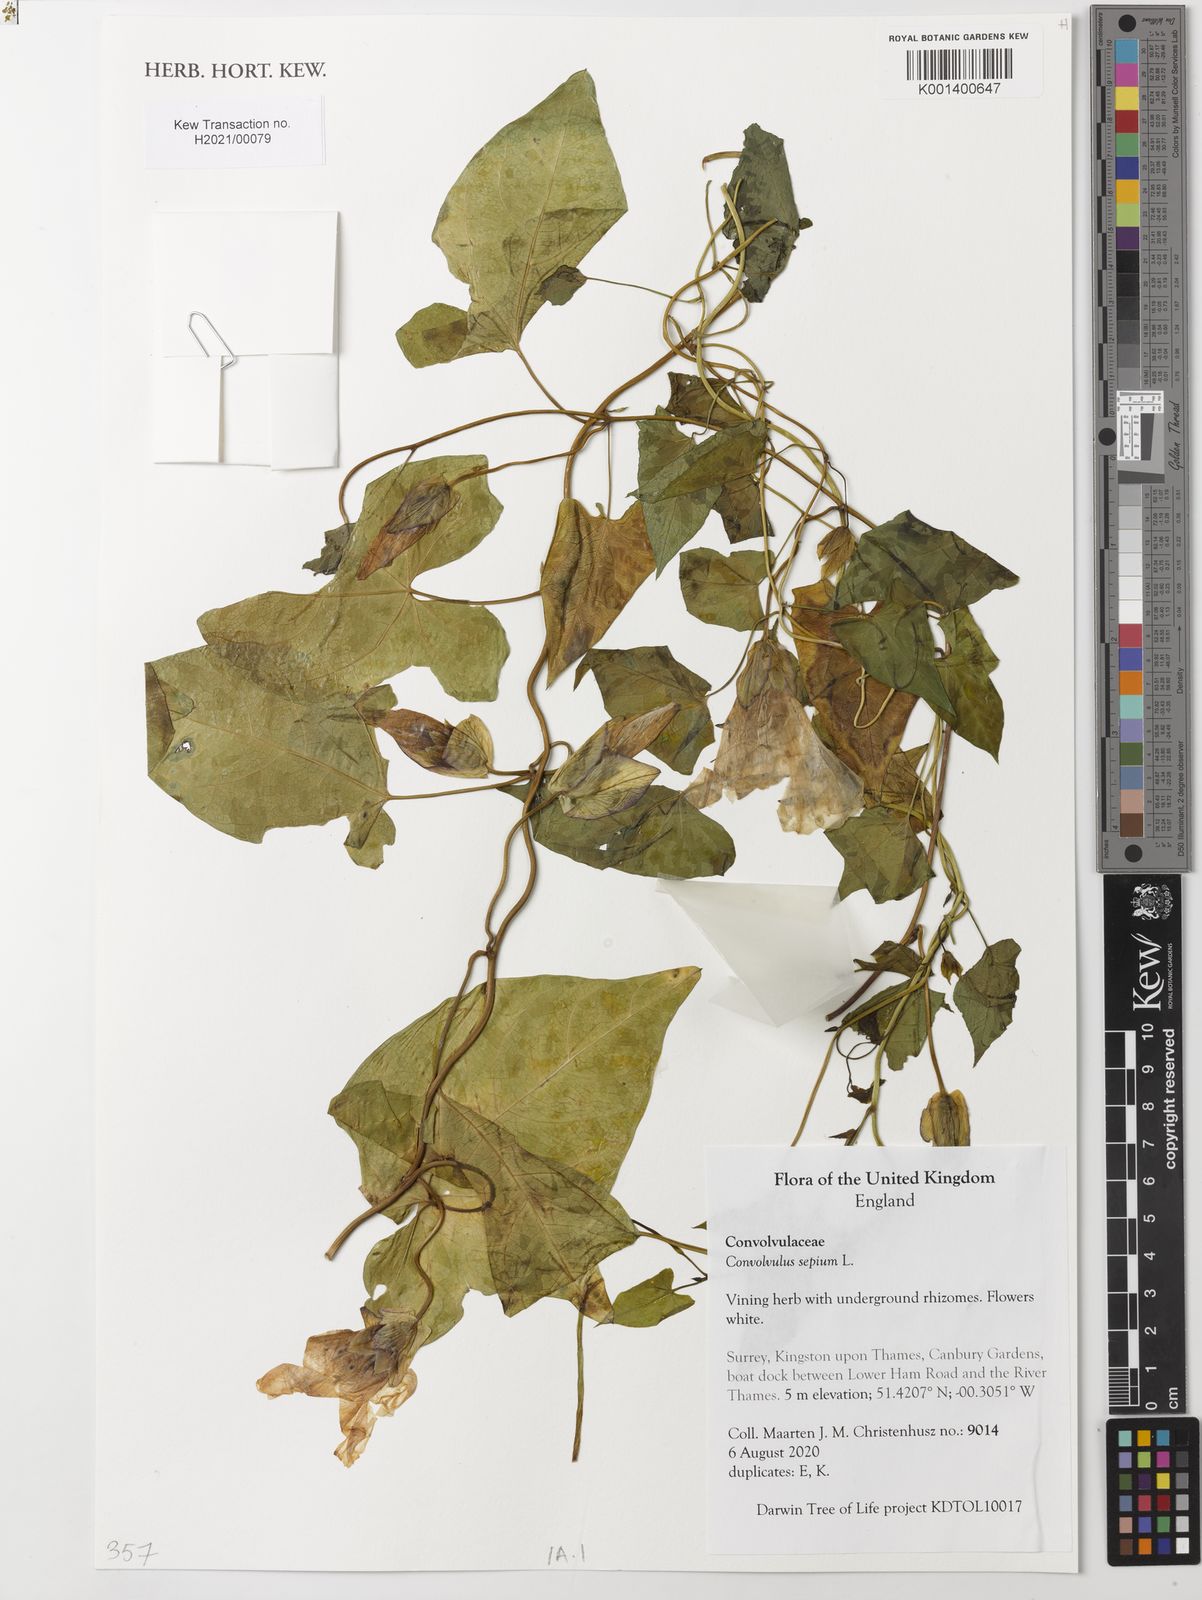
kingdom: Plantae
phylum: Tracheophyta
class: Magnoliopsida
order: Solanales
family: Convolvulaceae
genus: Calystegia
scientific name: Calystegia sepium
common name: Hedge bindweed
